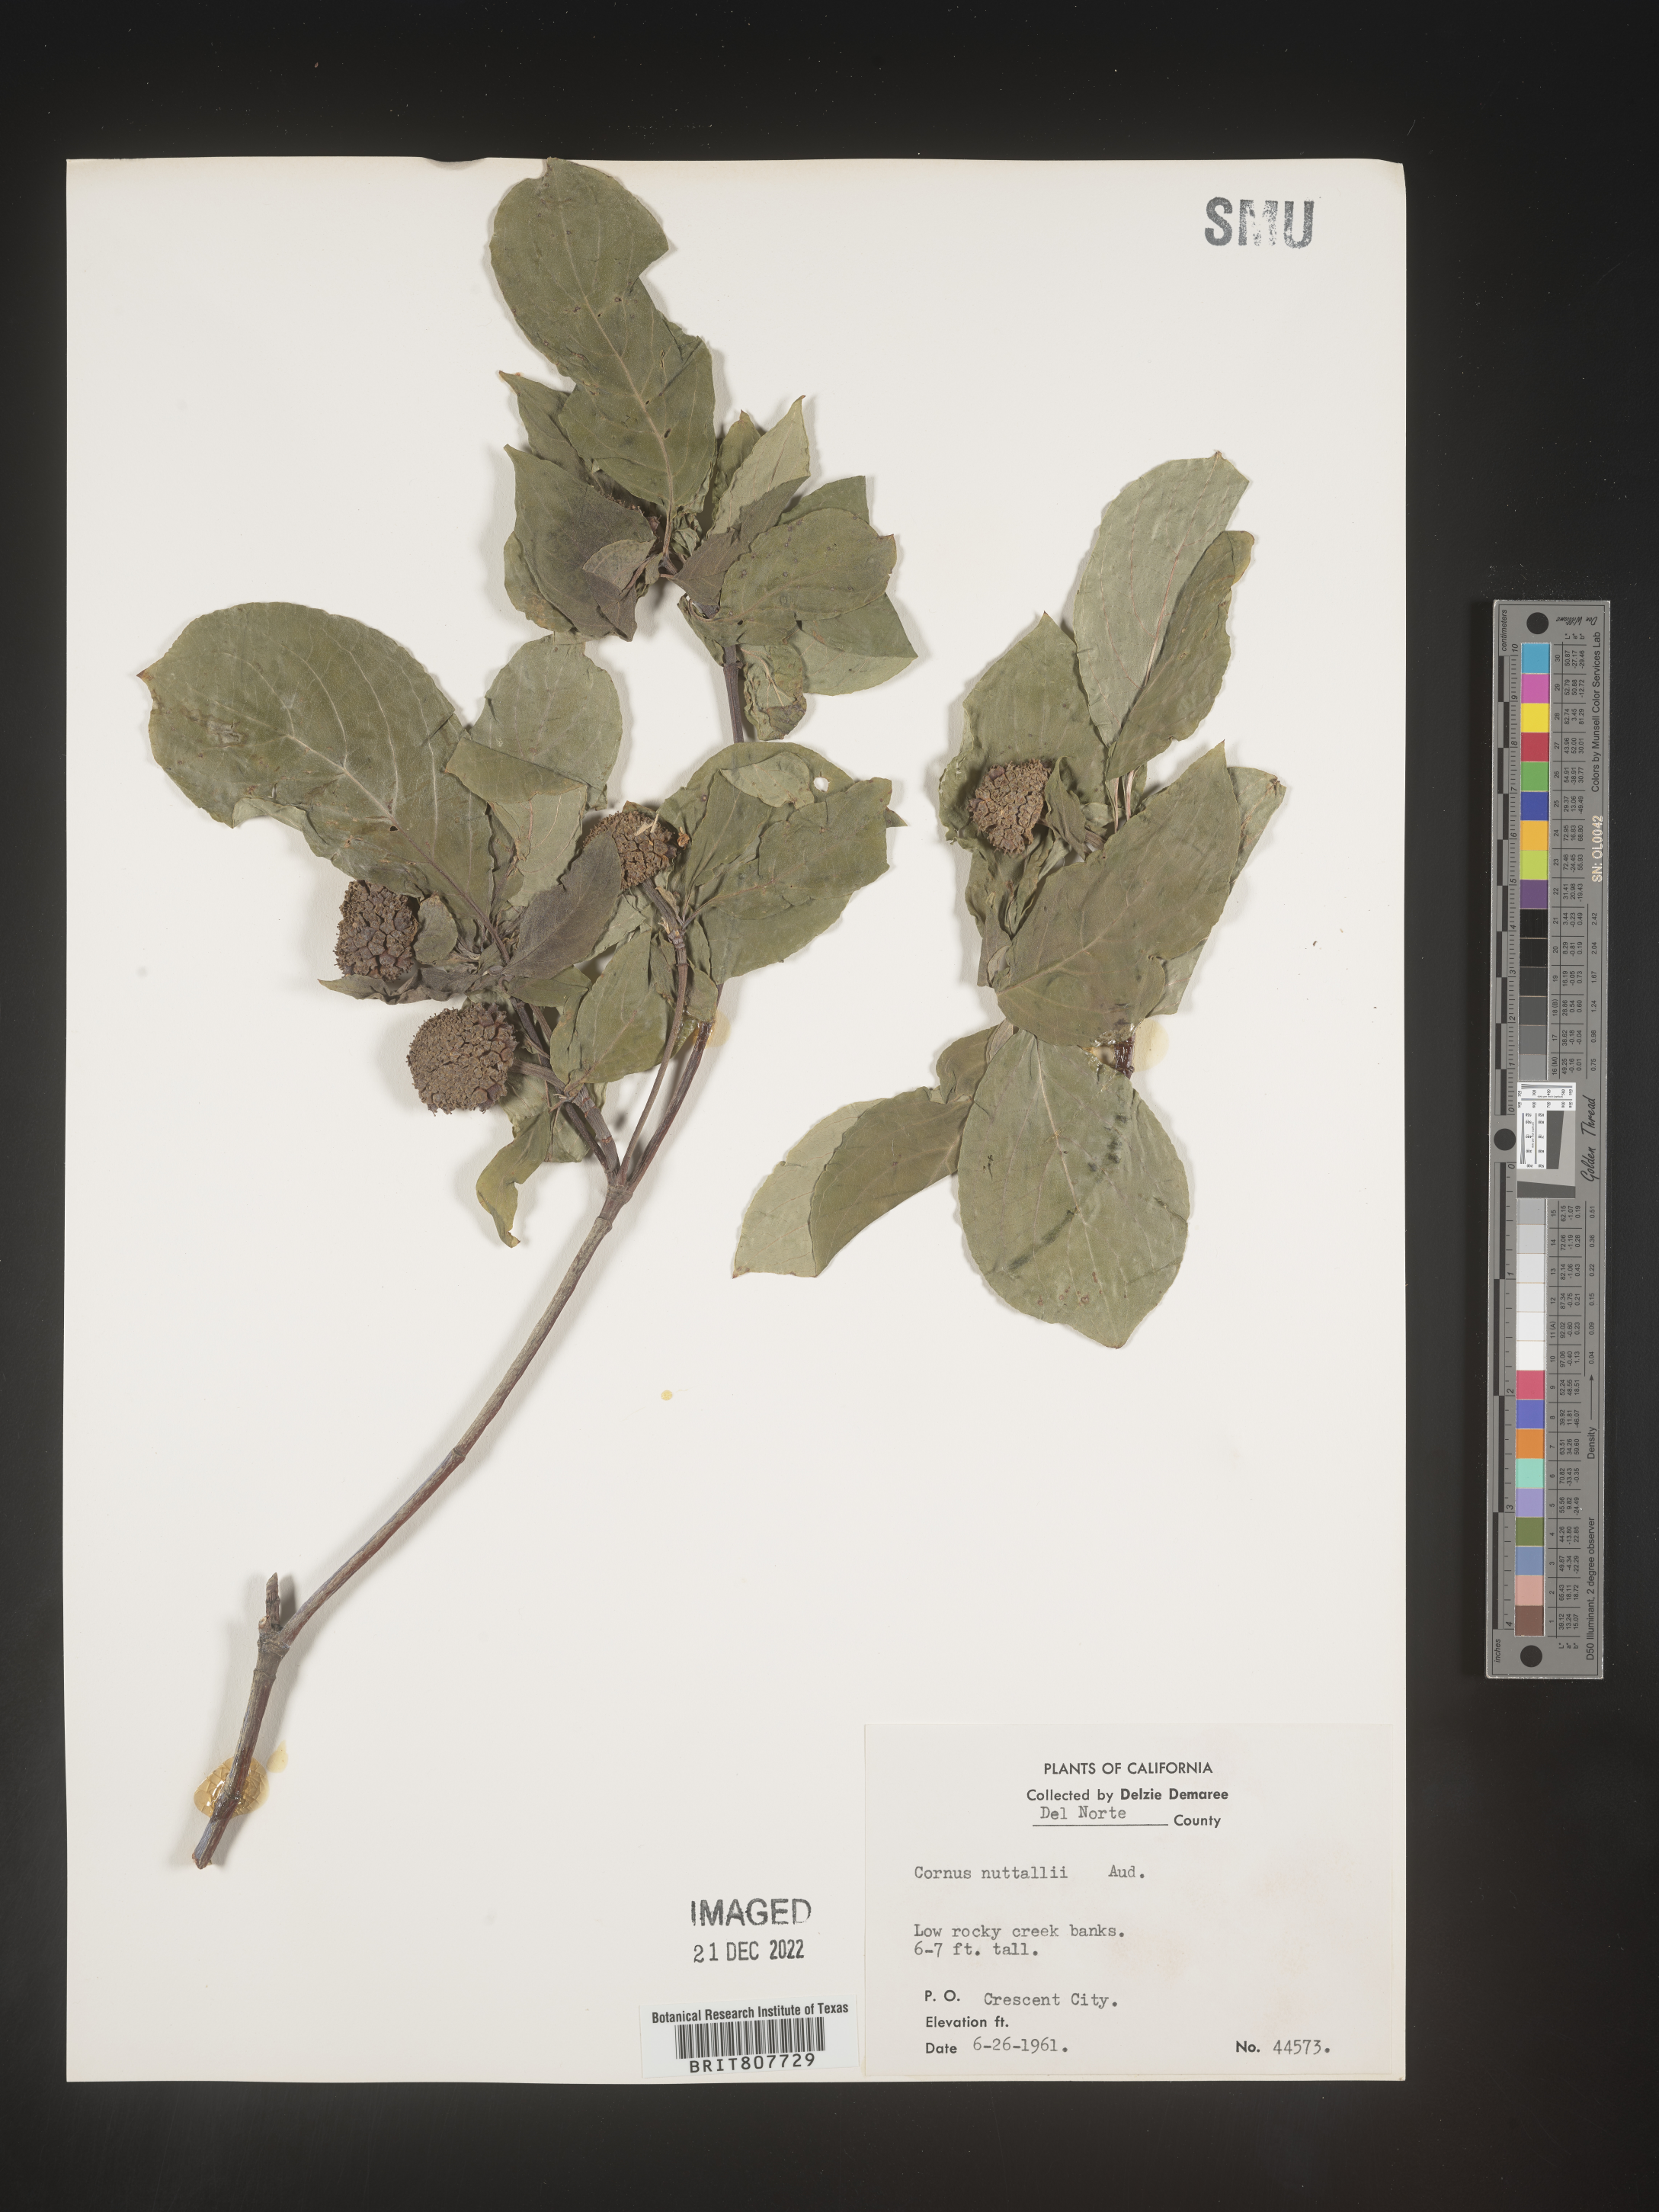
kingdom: Plantae
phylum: Tracheophyta
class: Magnoliopsida
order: Cornales
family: Cornaceae
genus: Cornus
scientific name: Cornus nuttallii
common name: Pacific dogwood
